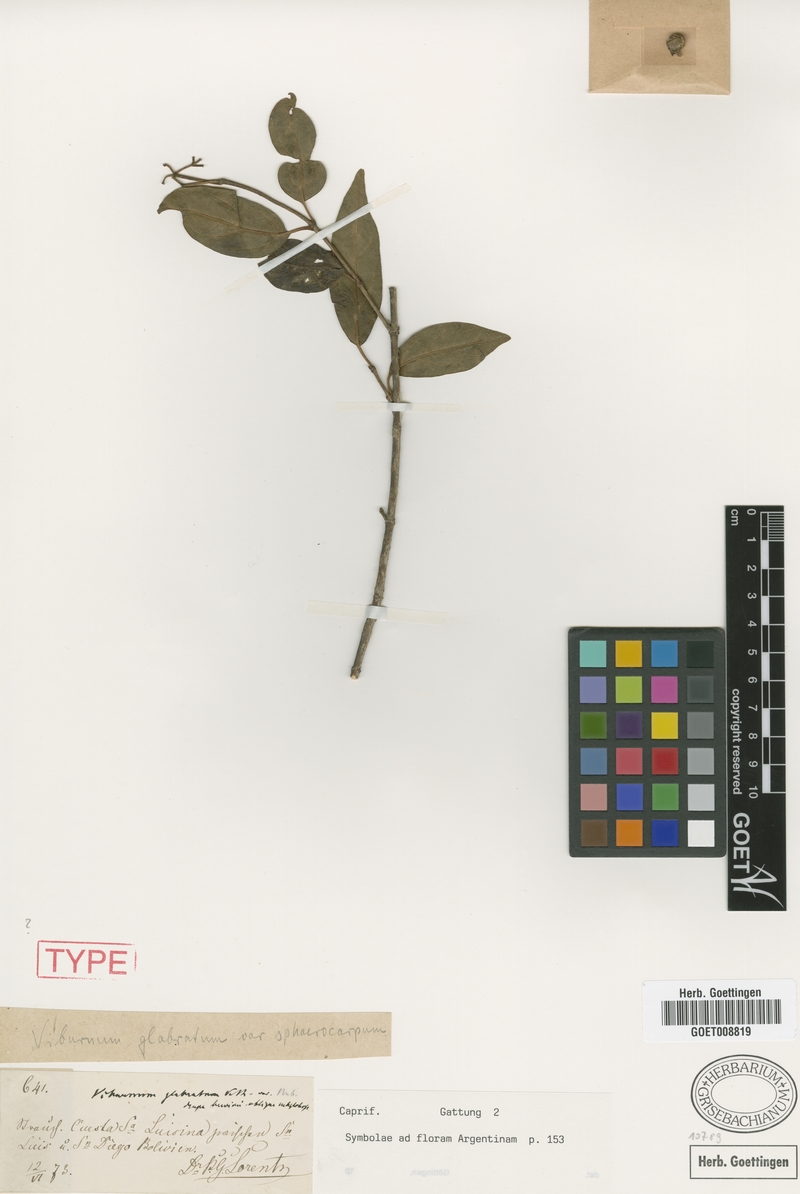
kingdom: Plantae
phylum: Tracheophyta
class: Magnoliopsida
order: Dipsacales
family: Viburnaceae
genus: Viburnum
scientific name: Viburnum seemenii
